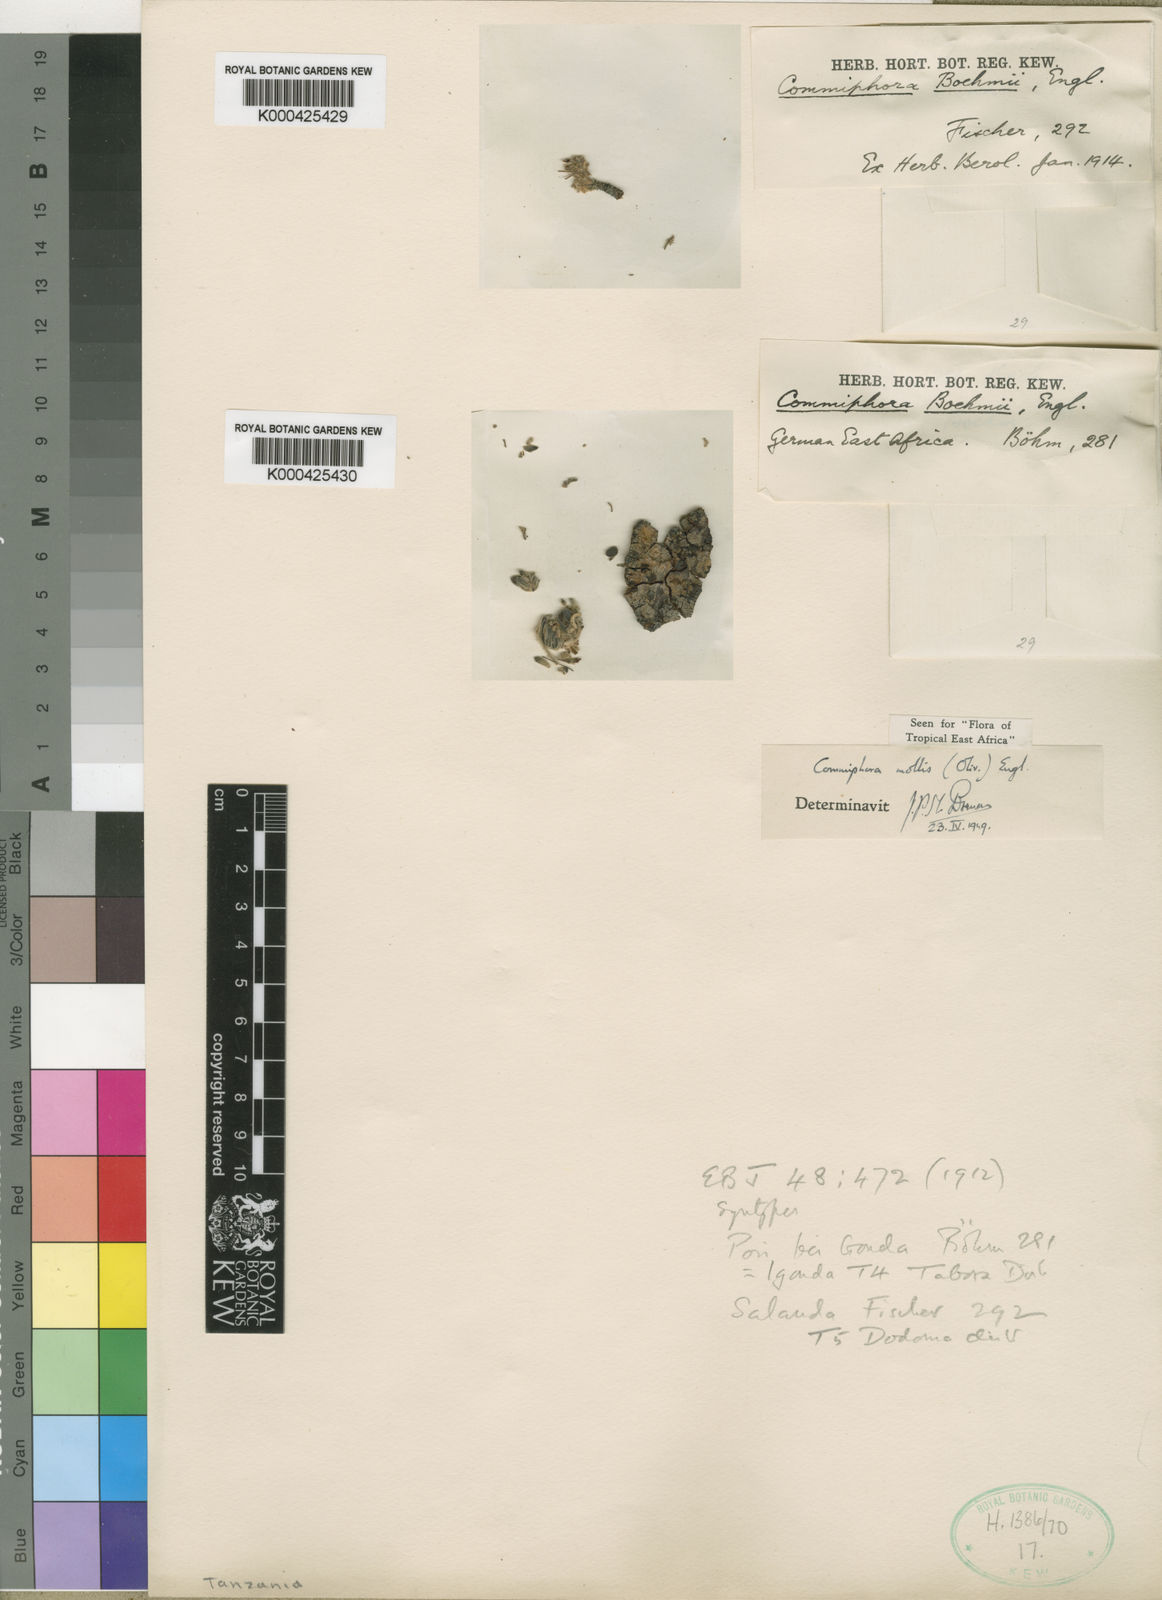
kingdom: Plantae
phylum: Tracheophyta
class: Magnoliopsida
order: Sapindales
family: Burseraceae
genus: Commiphora
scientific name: Commiphora mollis
